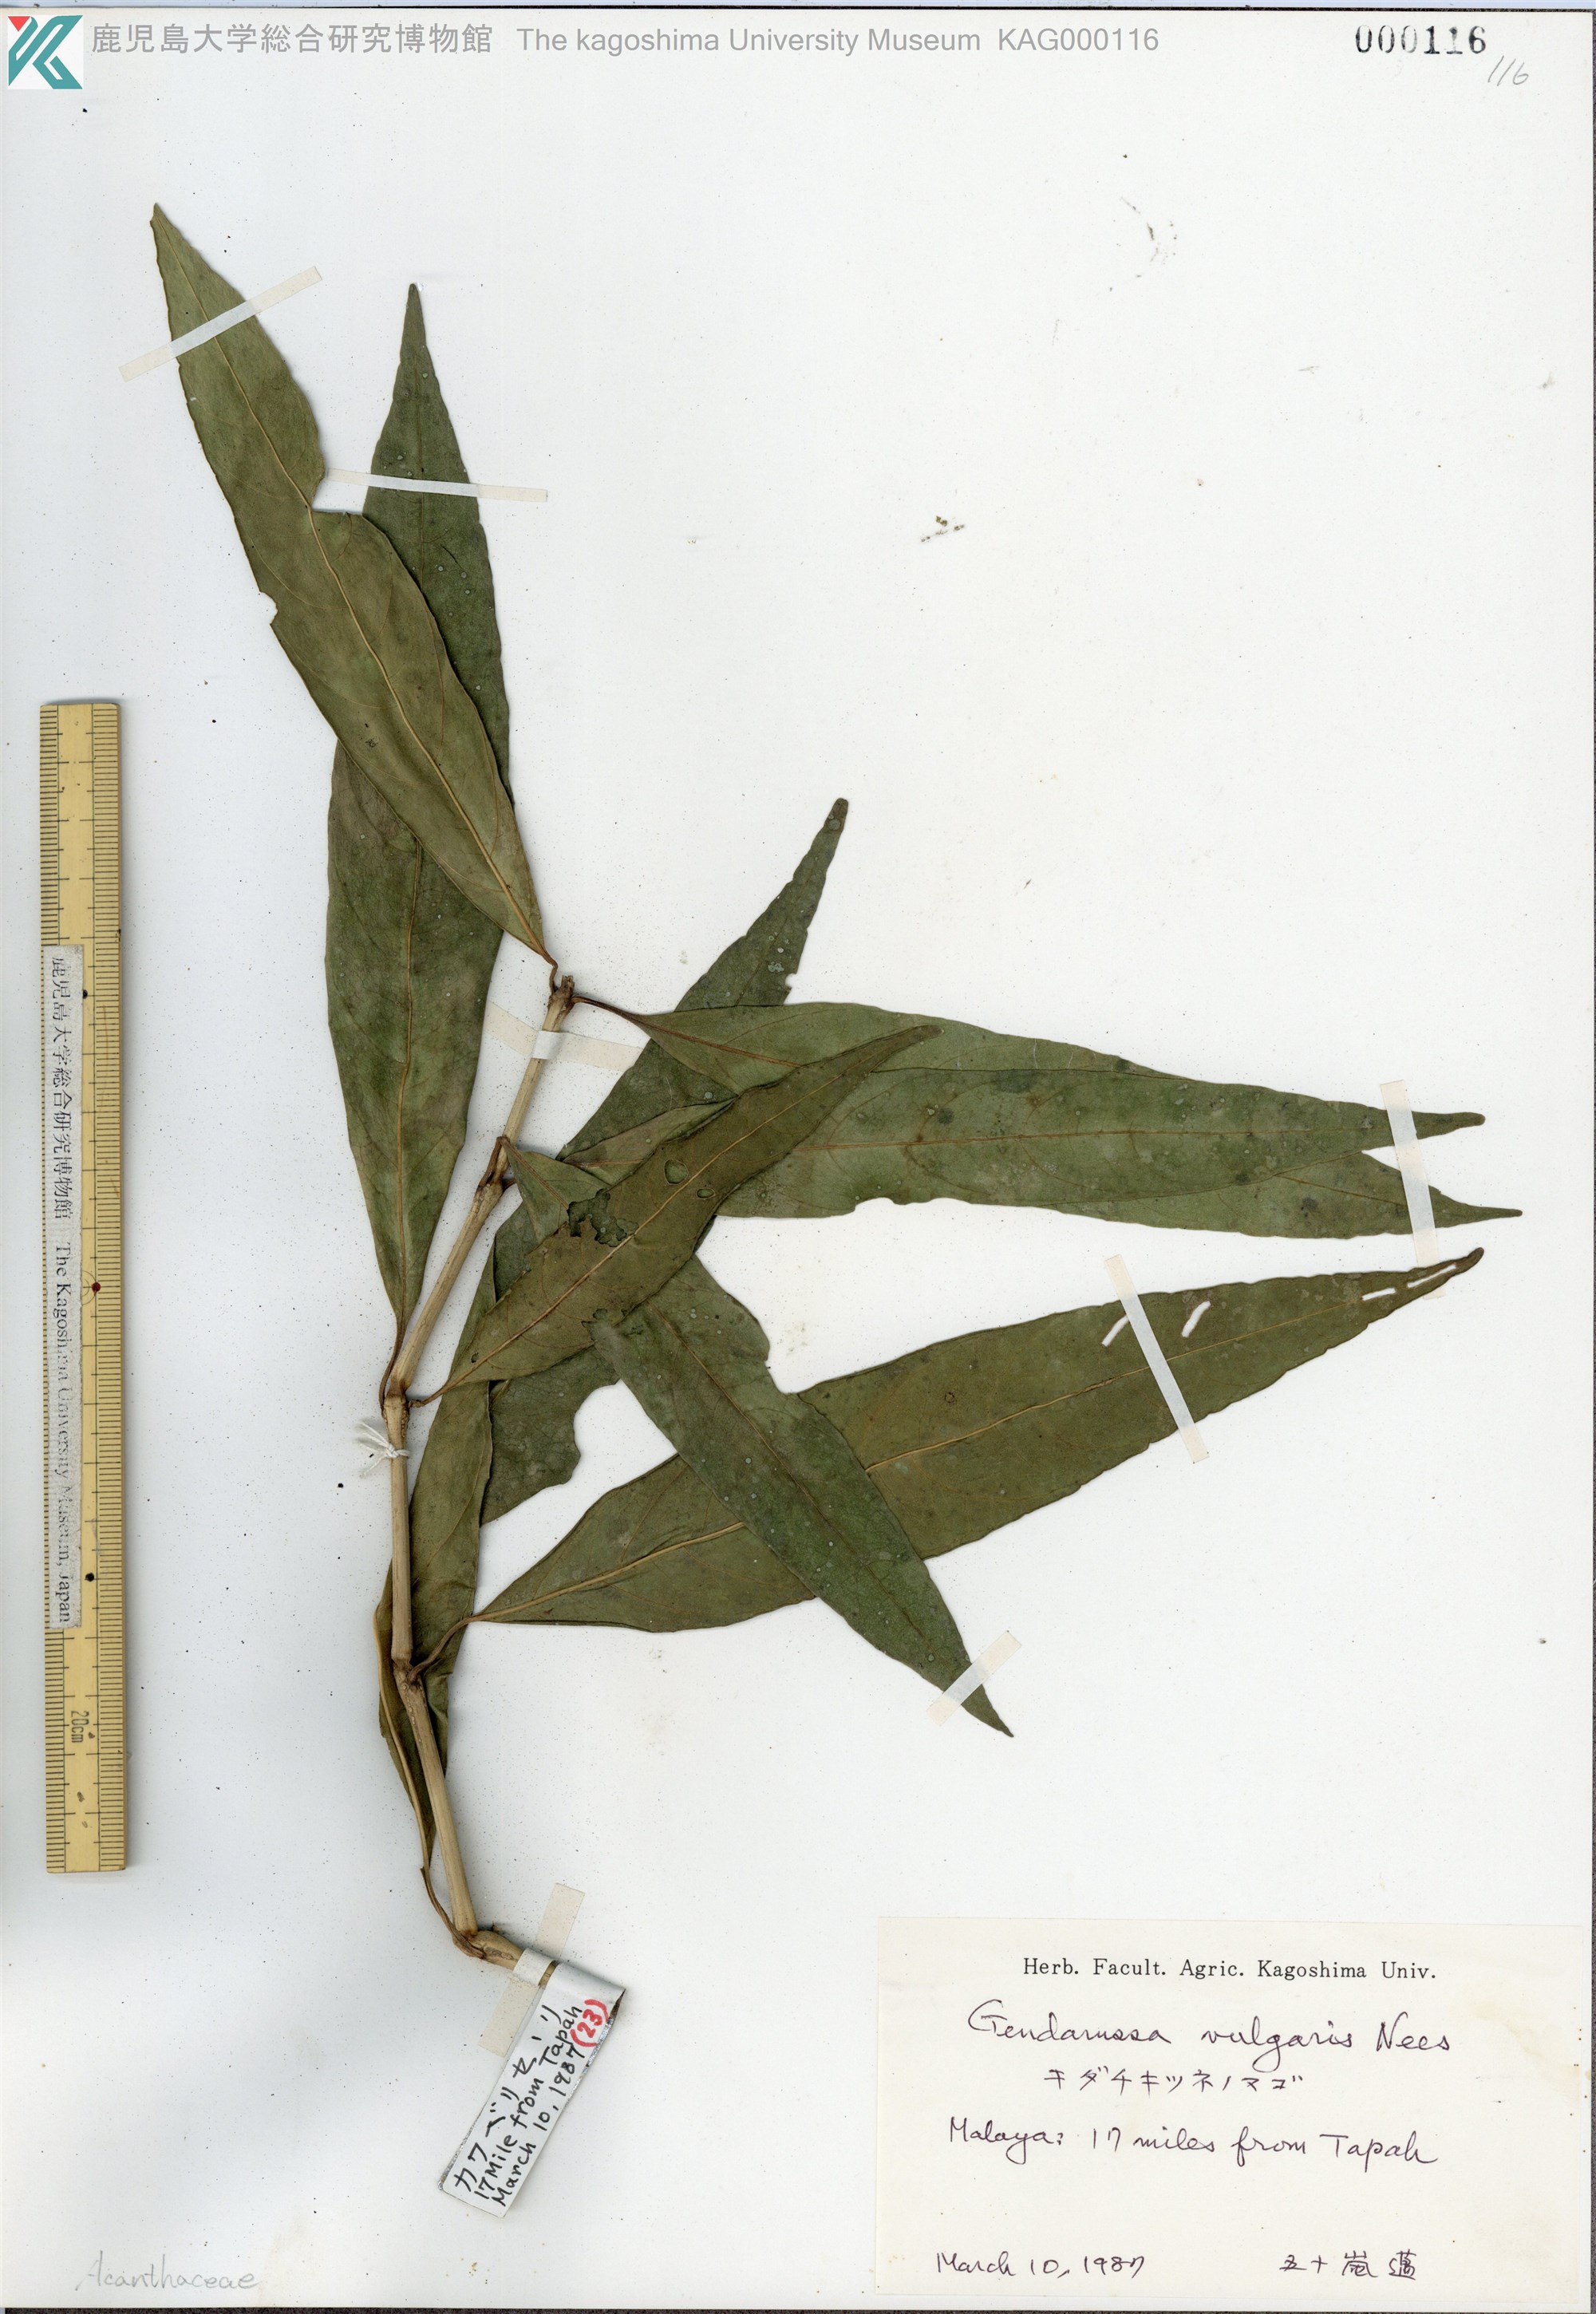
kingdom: Plantae
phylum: Tracheophyta
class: Magnoliopsida
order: Lamiales
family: Acanthaceae
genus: Justicia
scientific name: Justicia gendarussa
